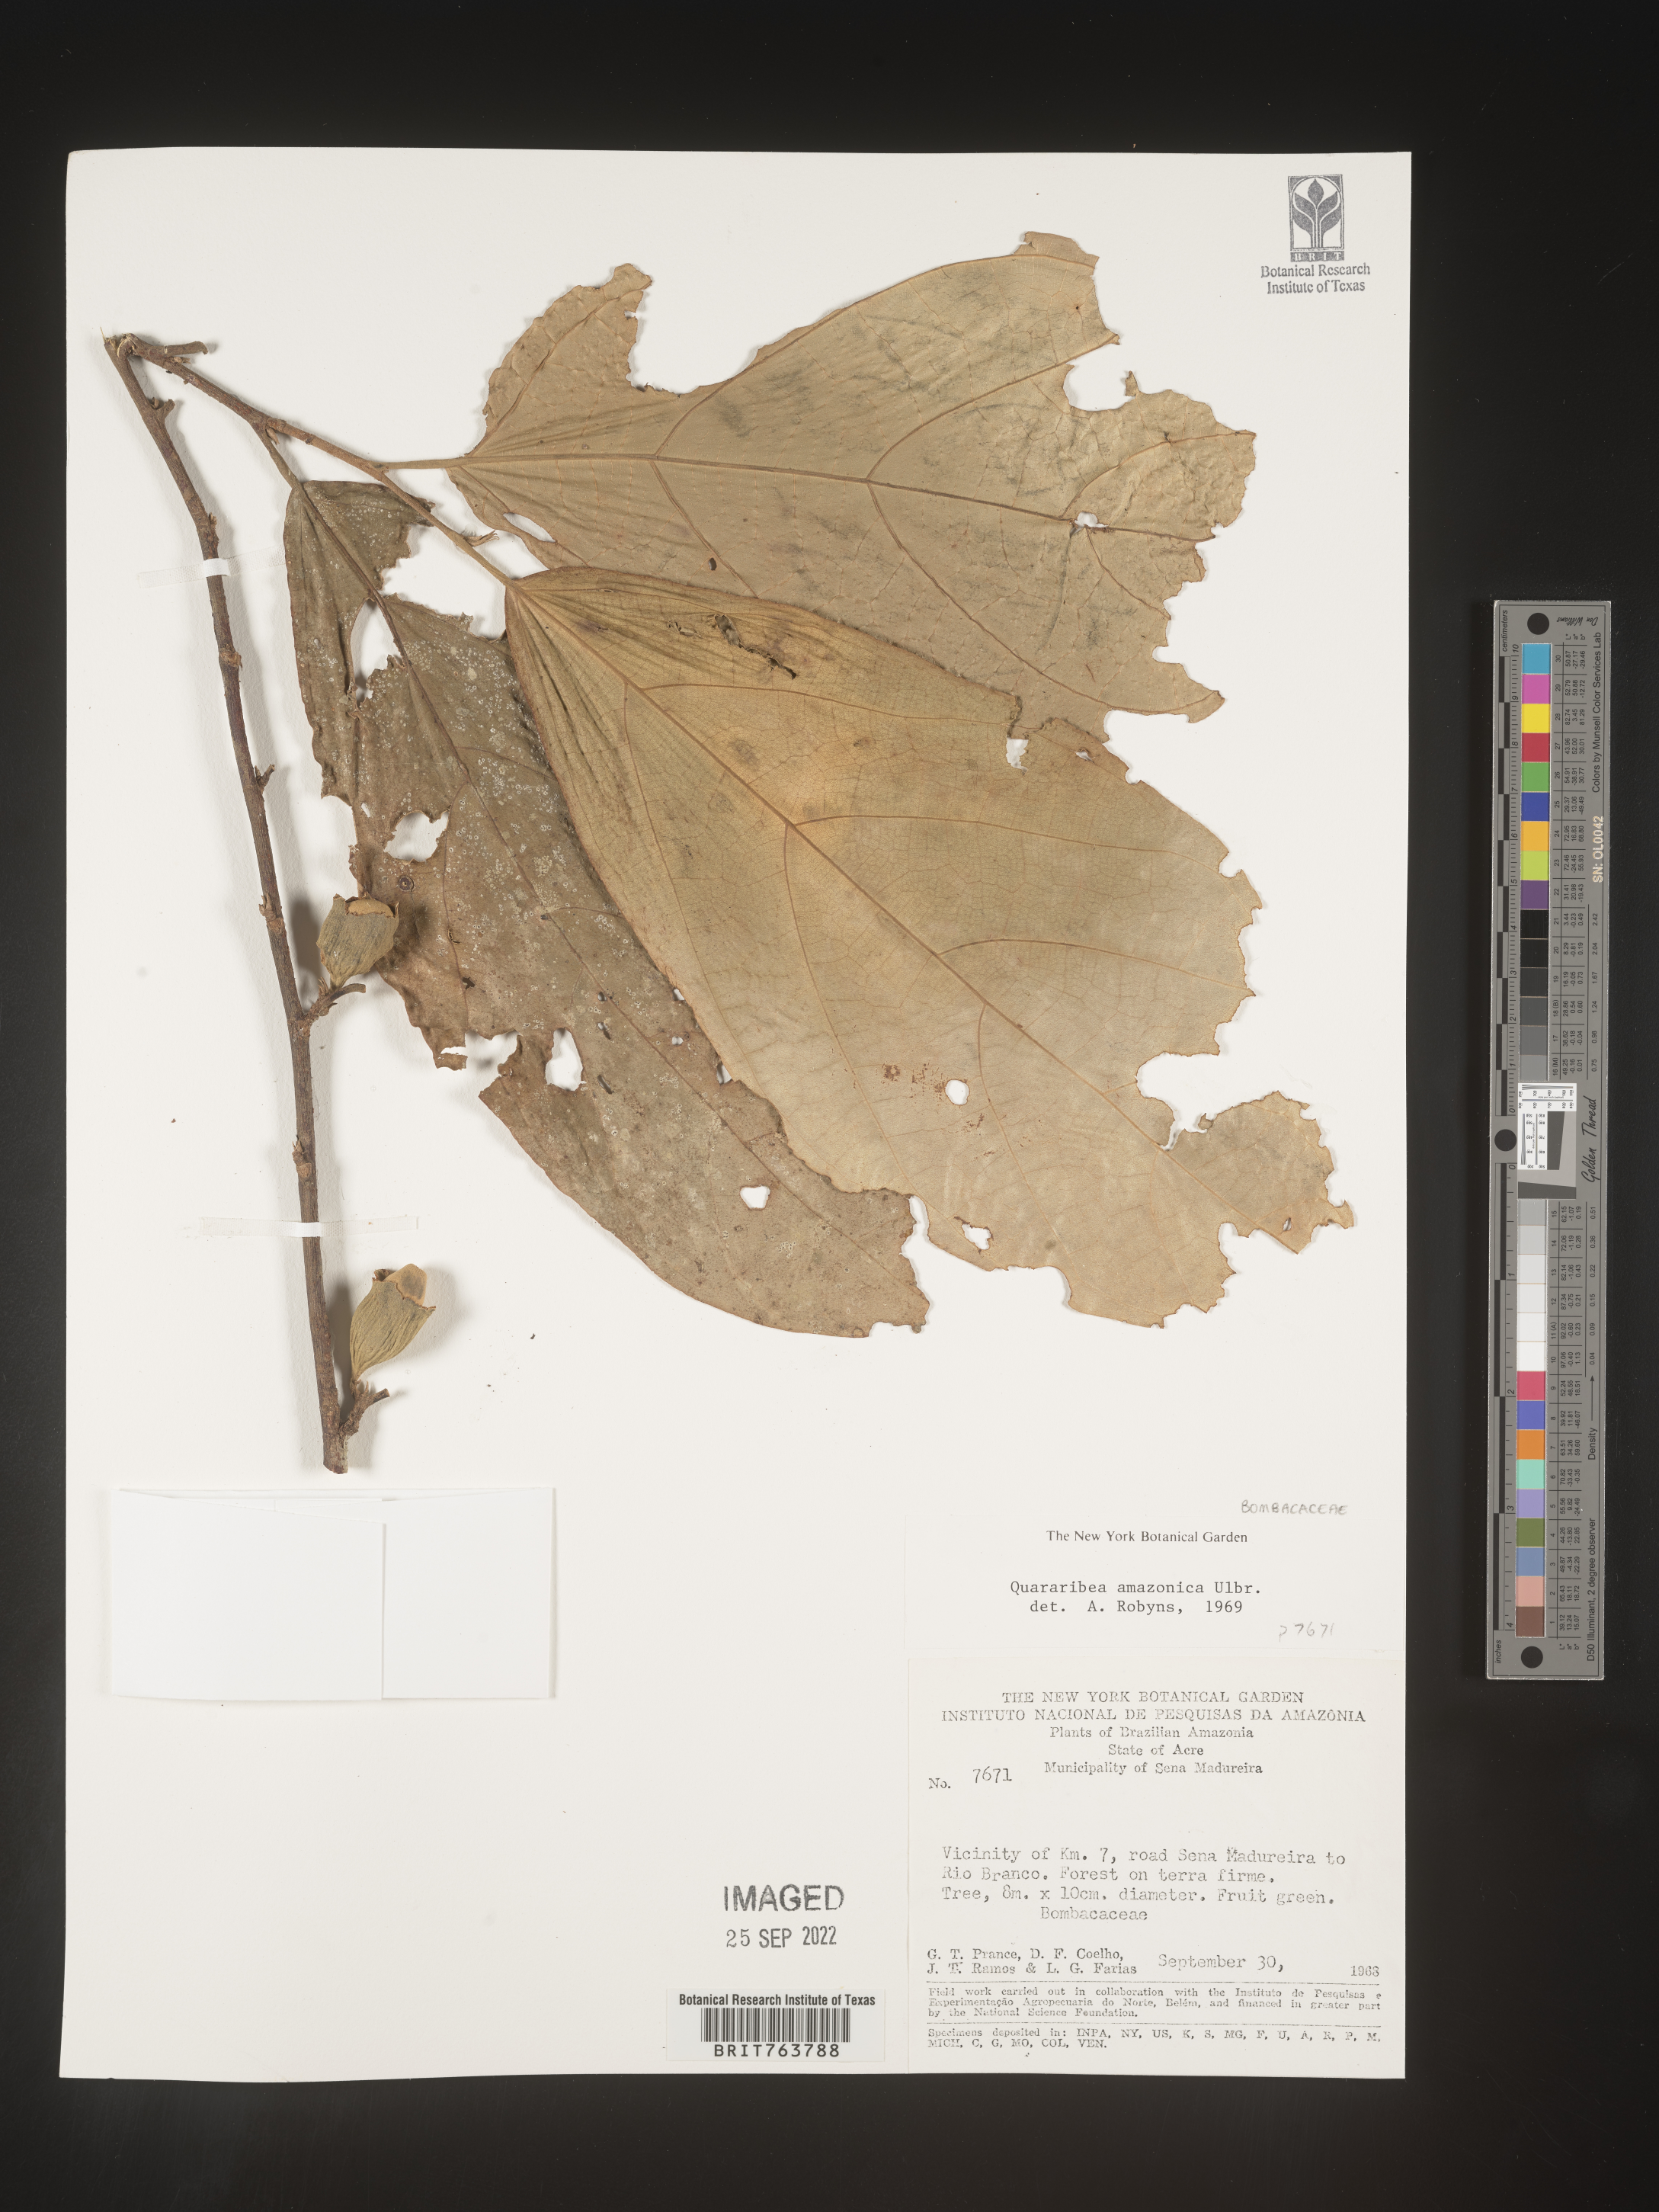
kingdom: Plantae
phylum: Tracheophyta
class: Magnoliopsida
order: Malvales
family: Malvaceae
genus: Quararibea
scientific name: Quararibea
